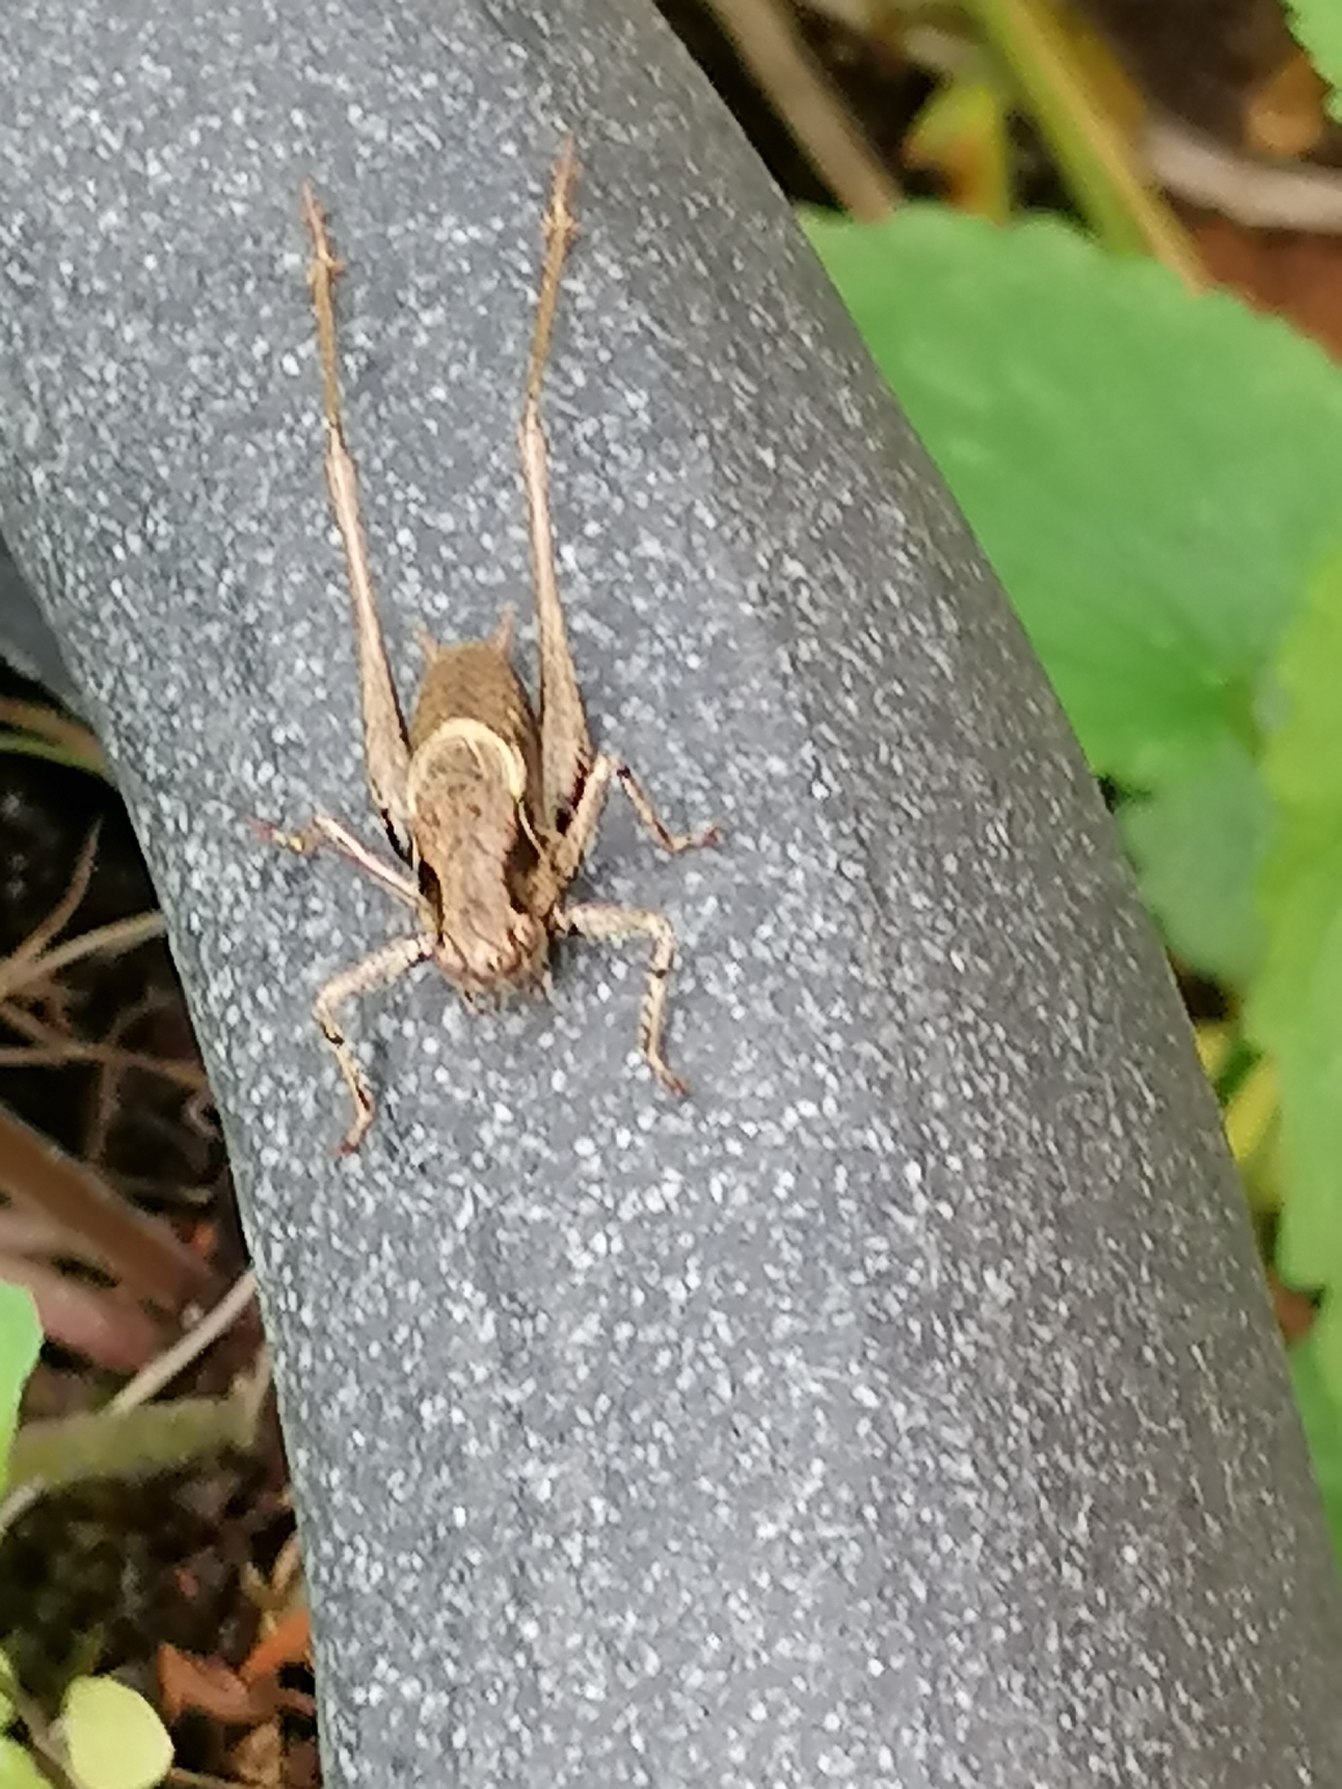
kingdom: Animalia
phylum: Arthropoda
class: Insecta
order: Orthoptera
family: Tettigoniidae
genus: Pholidoptera
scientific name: Pholidoptera griseoaptera
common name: Buskgræshoppe
